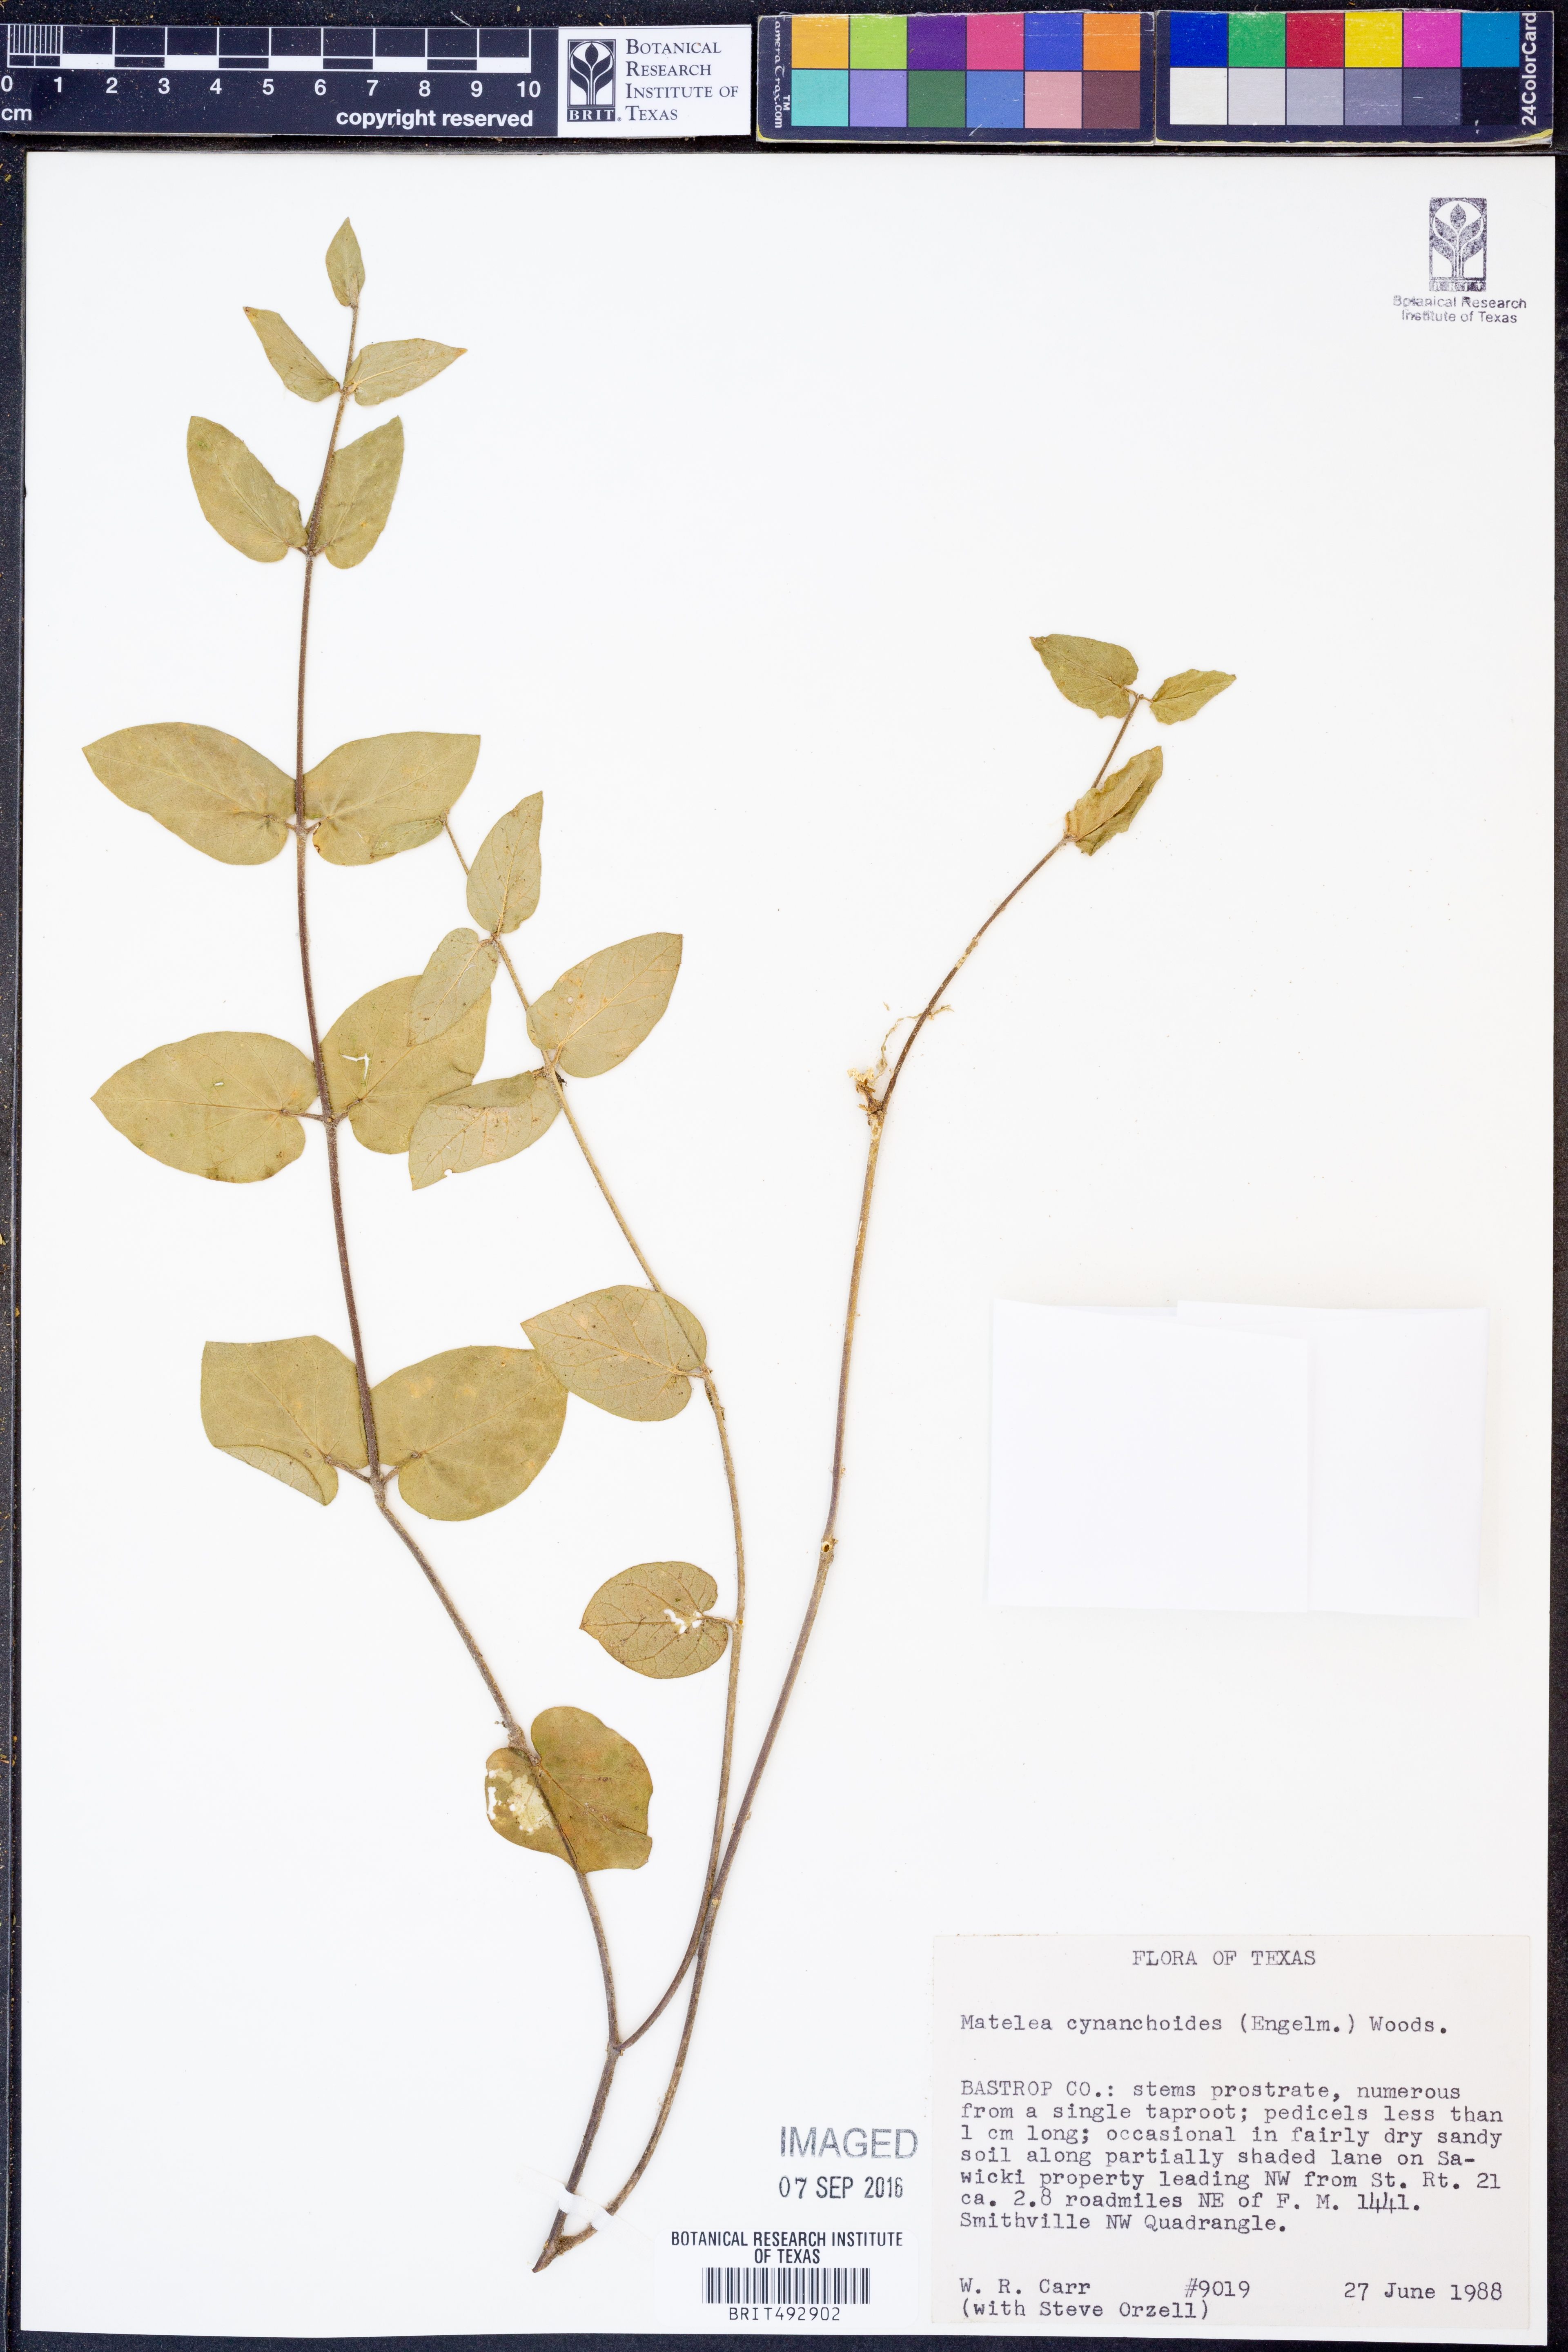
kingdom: Plantae
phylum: Tracheophyta
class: Magnoliopsida
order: Gentianales
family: Apocynaceae
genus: Matelea
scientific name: Matelea cynanchoides
